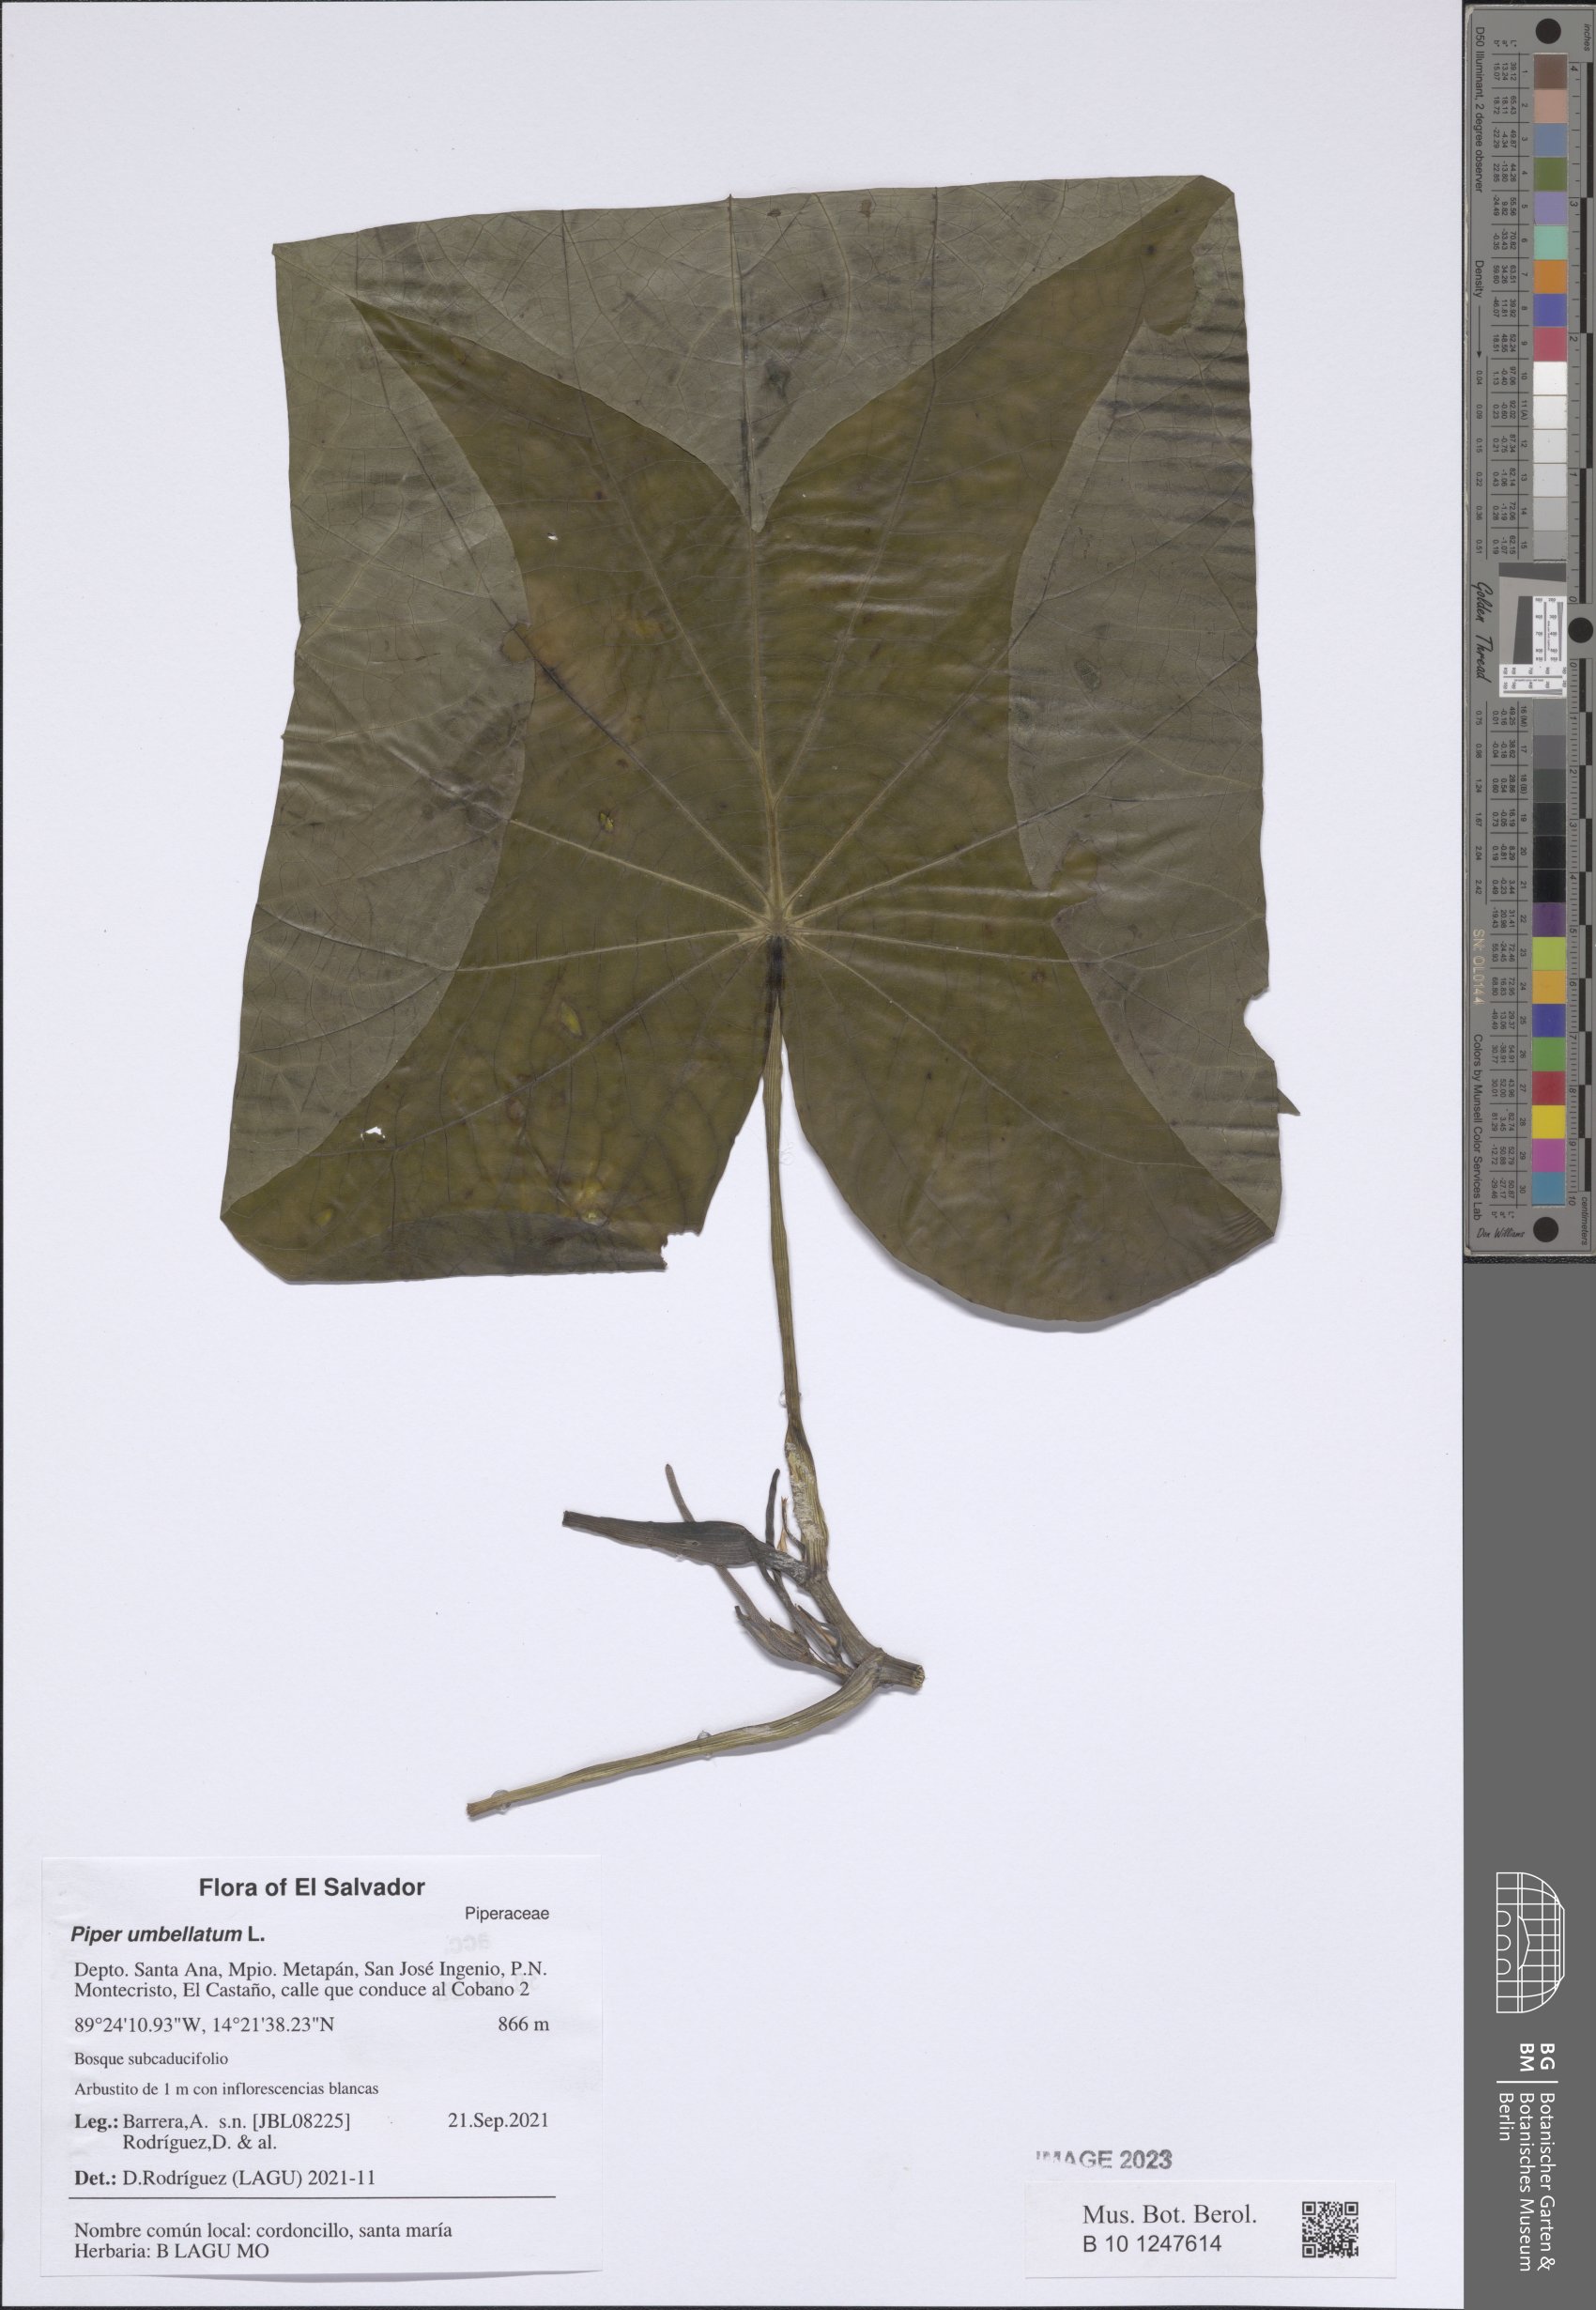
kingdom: Plantae
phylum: Tracheophyta
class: Magnoliopsida
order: Piperales
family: Piperaceae
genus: Piper
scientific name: Piper umbellatum
